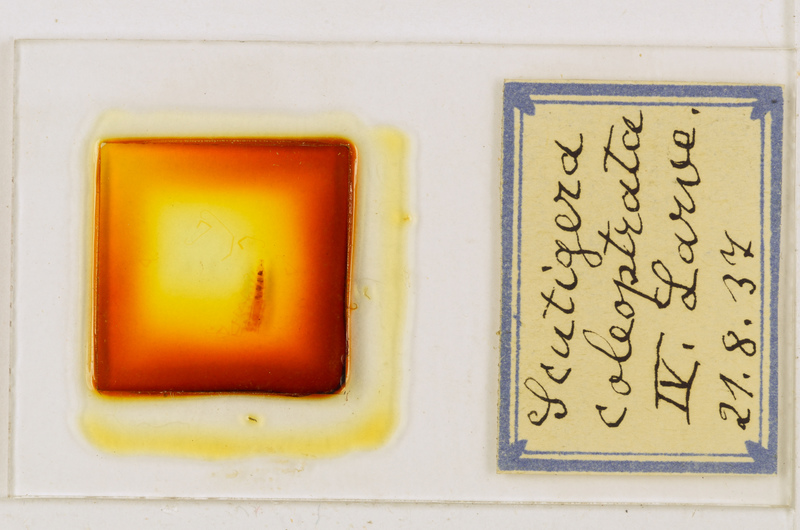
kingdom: Animalia
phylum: Arthropoda
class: Chilopoda
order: Scutigeromorpha
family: Scutigeridae
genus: Scutigera
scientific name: Scutigera coleoptrata
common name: House centipede
